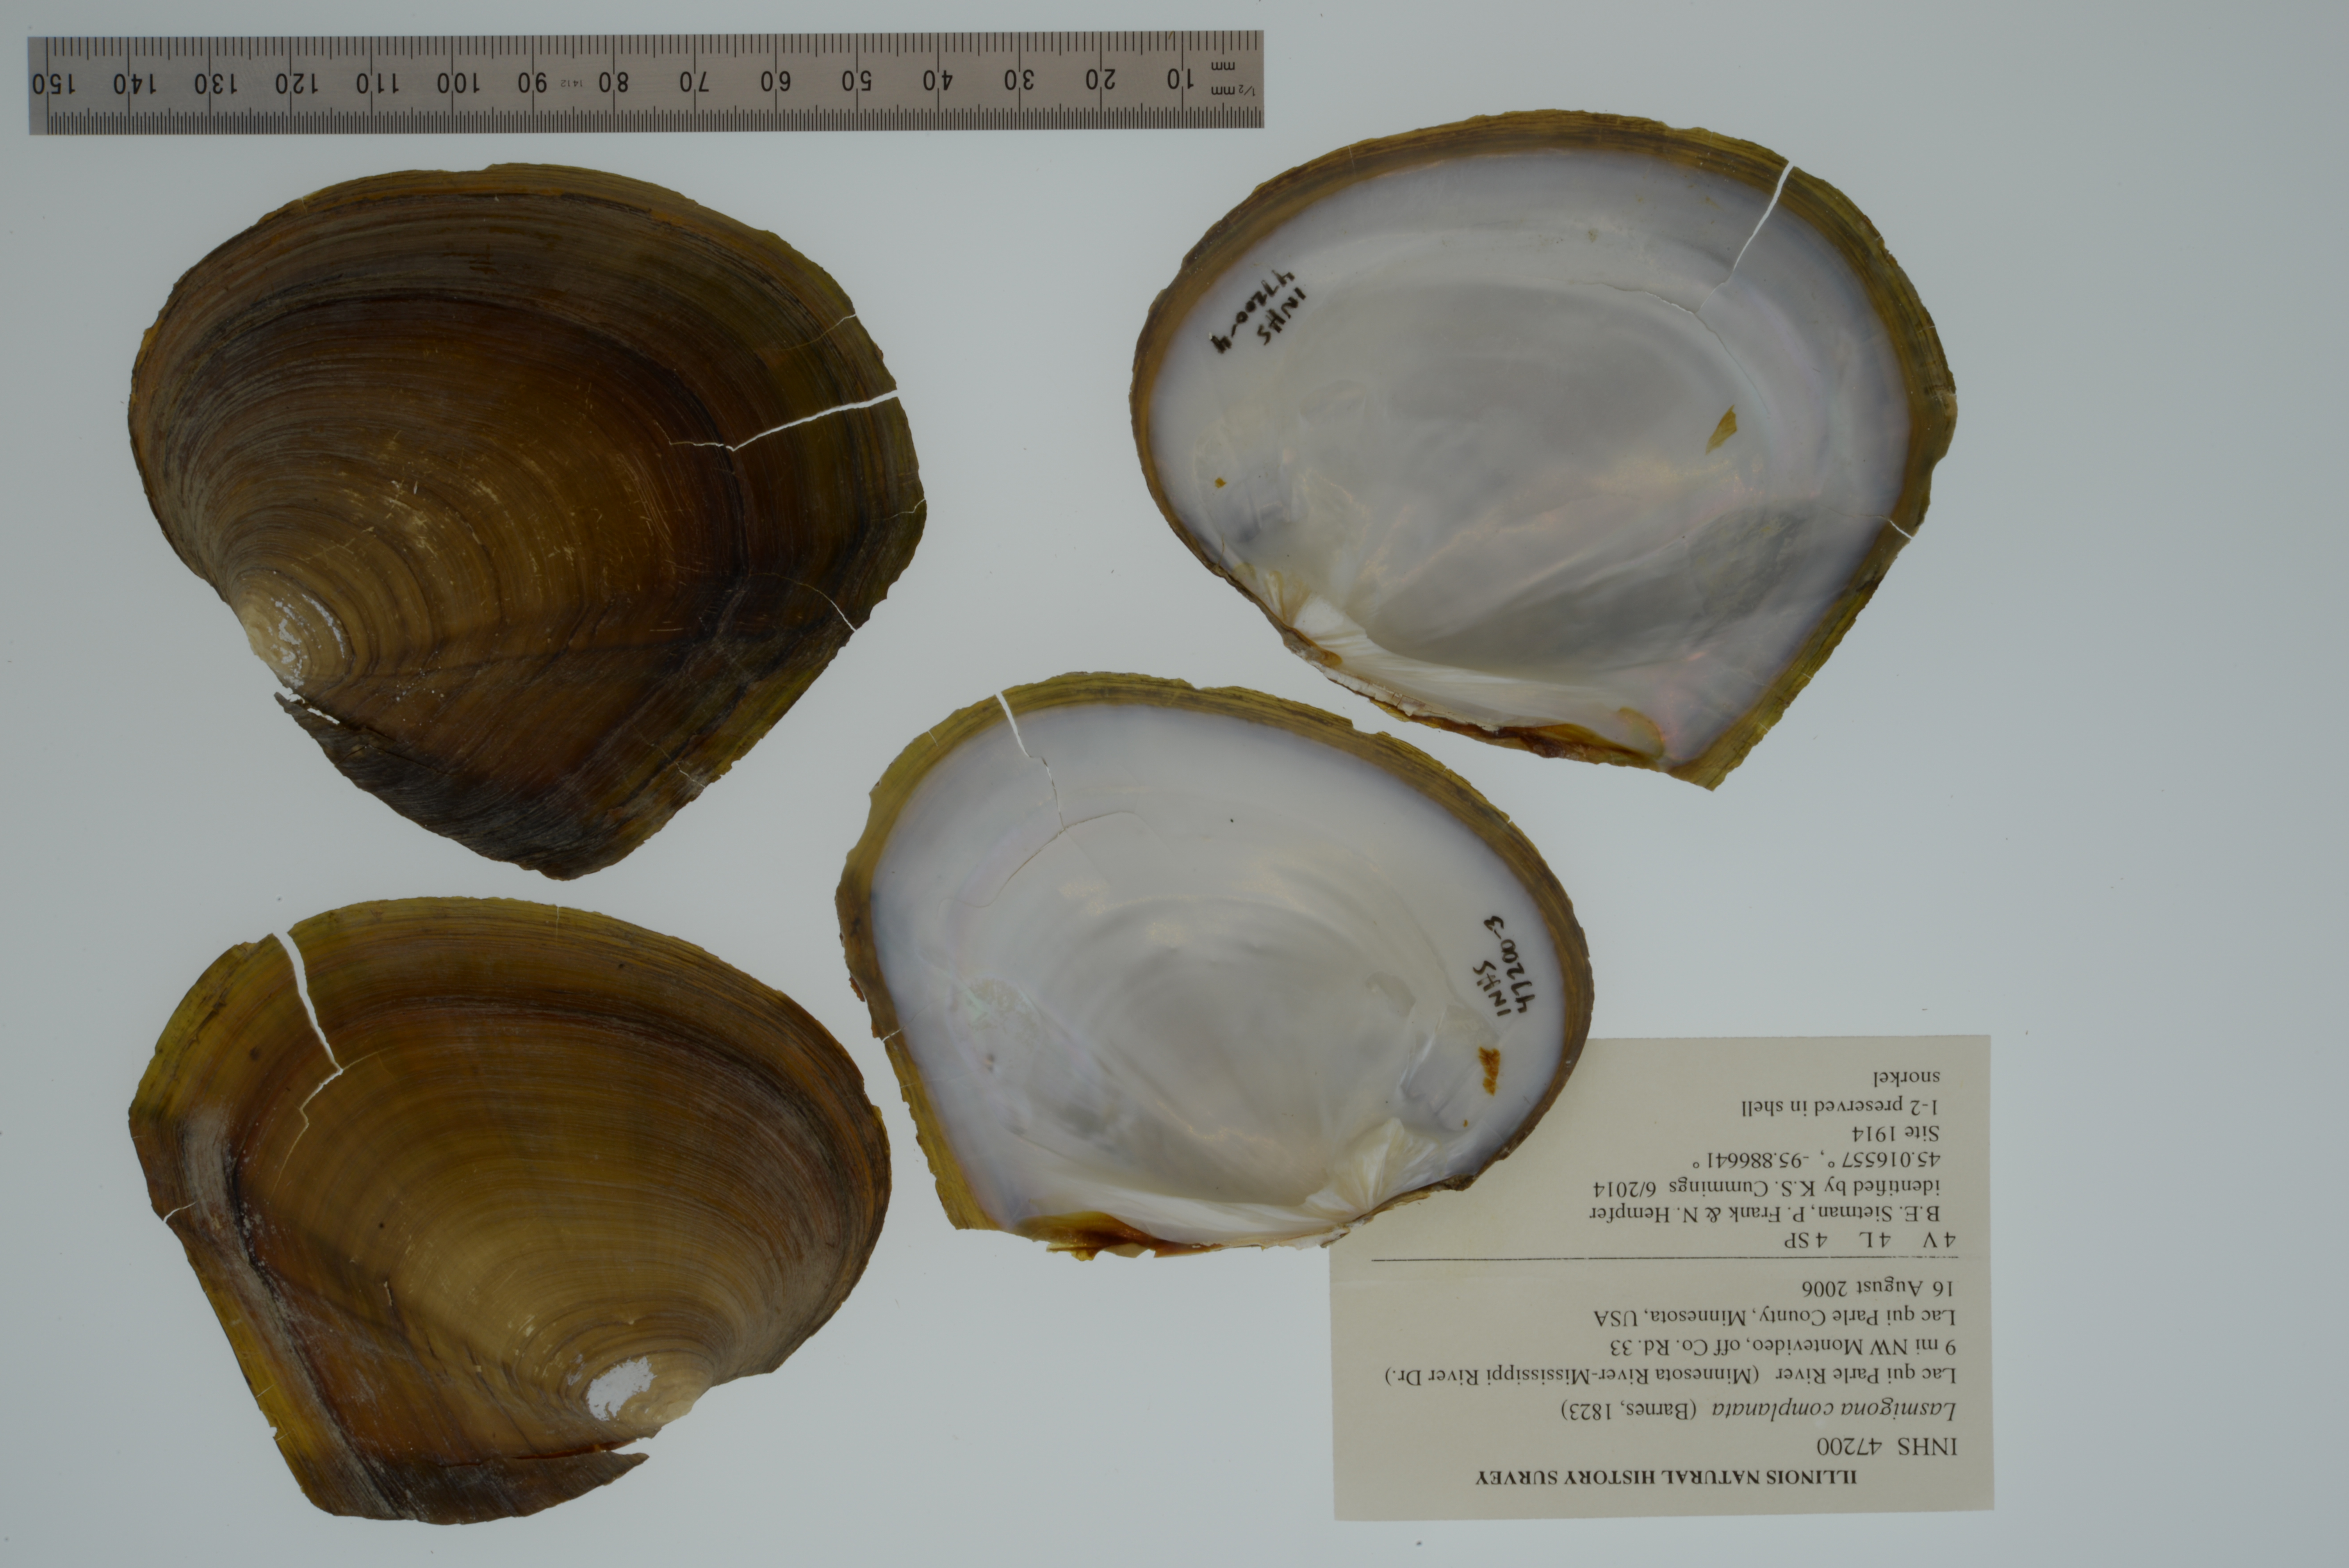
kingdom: Animalia
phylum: Mollusca
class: Bivalvia
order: Unionida
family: Unionidae
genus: Lasmigona
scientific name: Lasmigona complanata
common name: White heelsplitter
